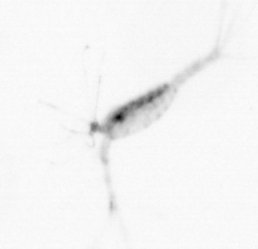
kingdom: Animalia
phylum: Arthropoda
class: Copepoda
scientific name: Copepoda
